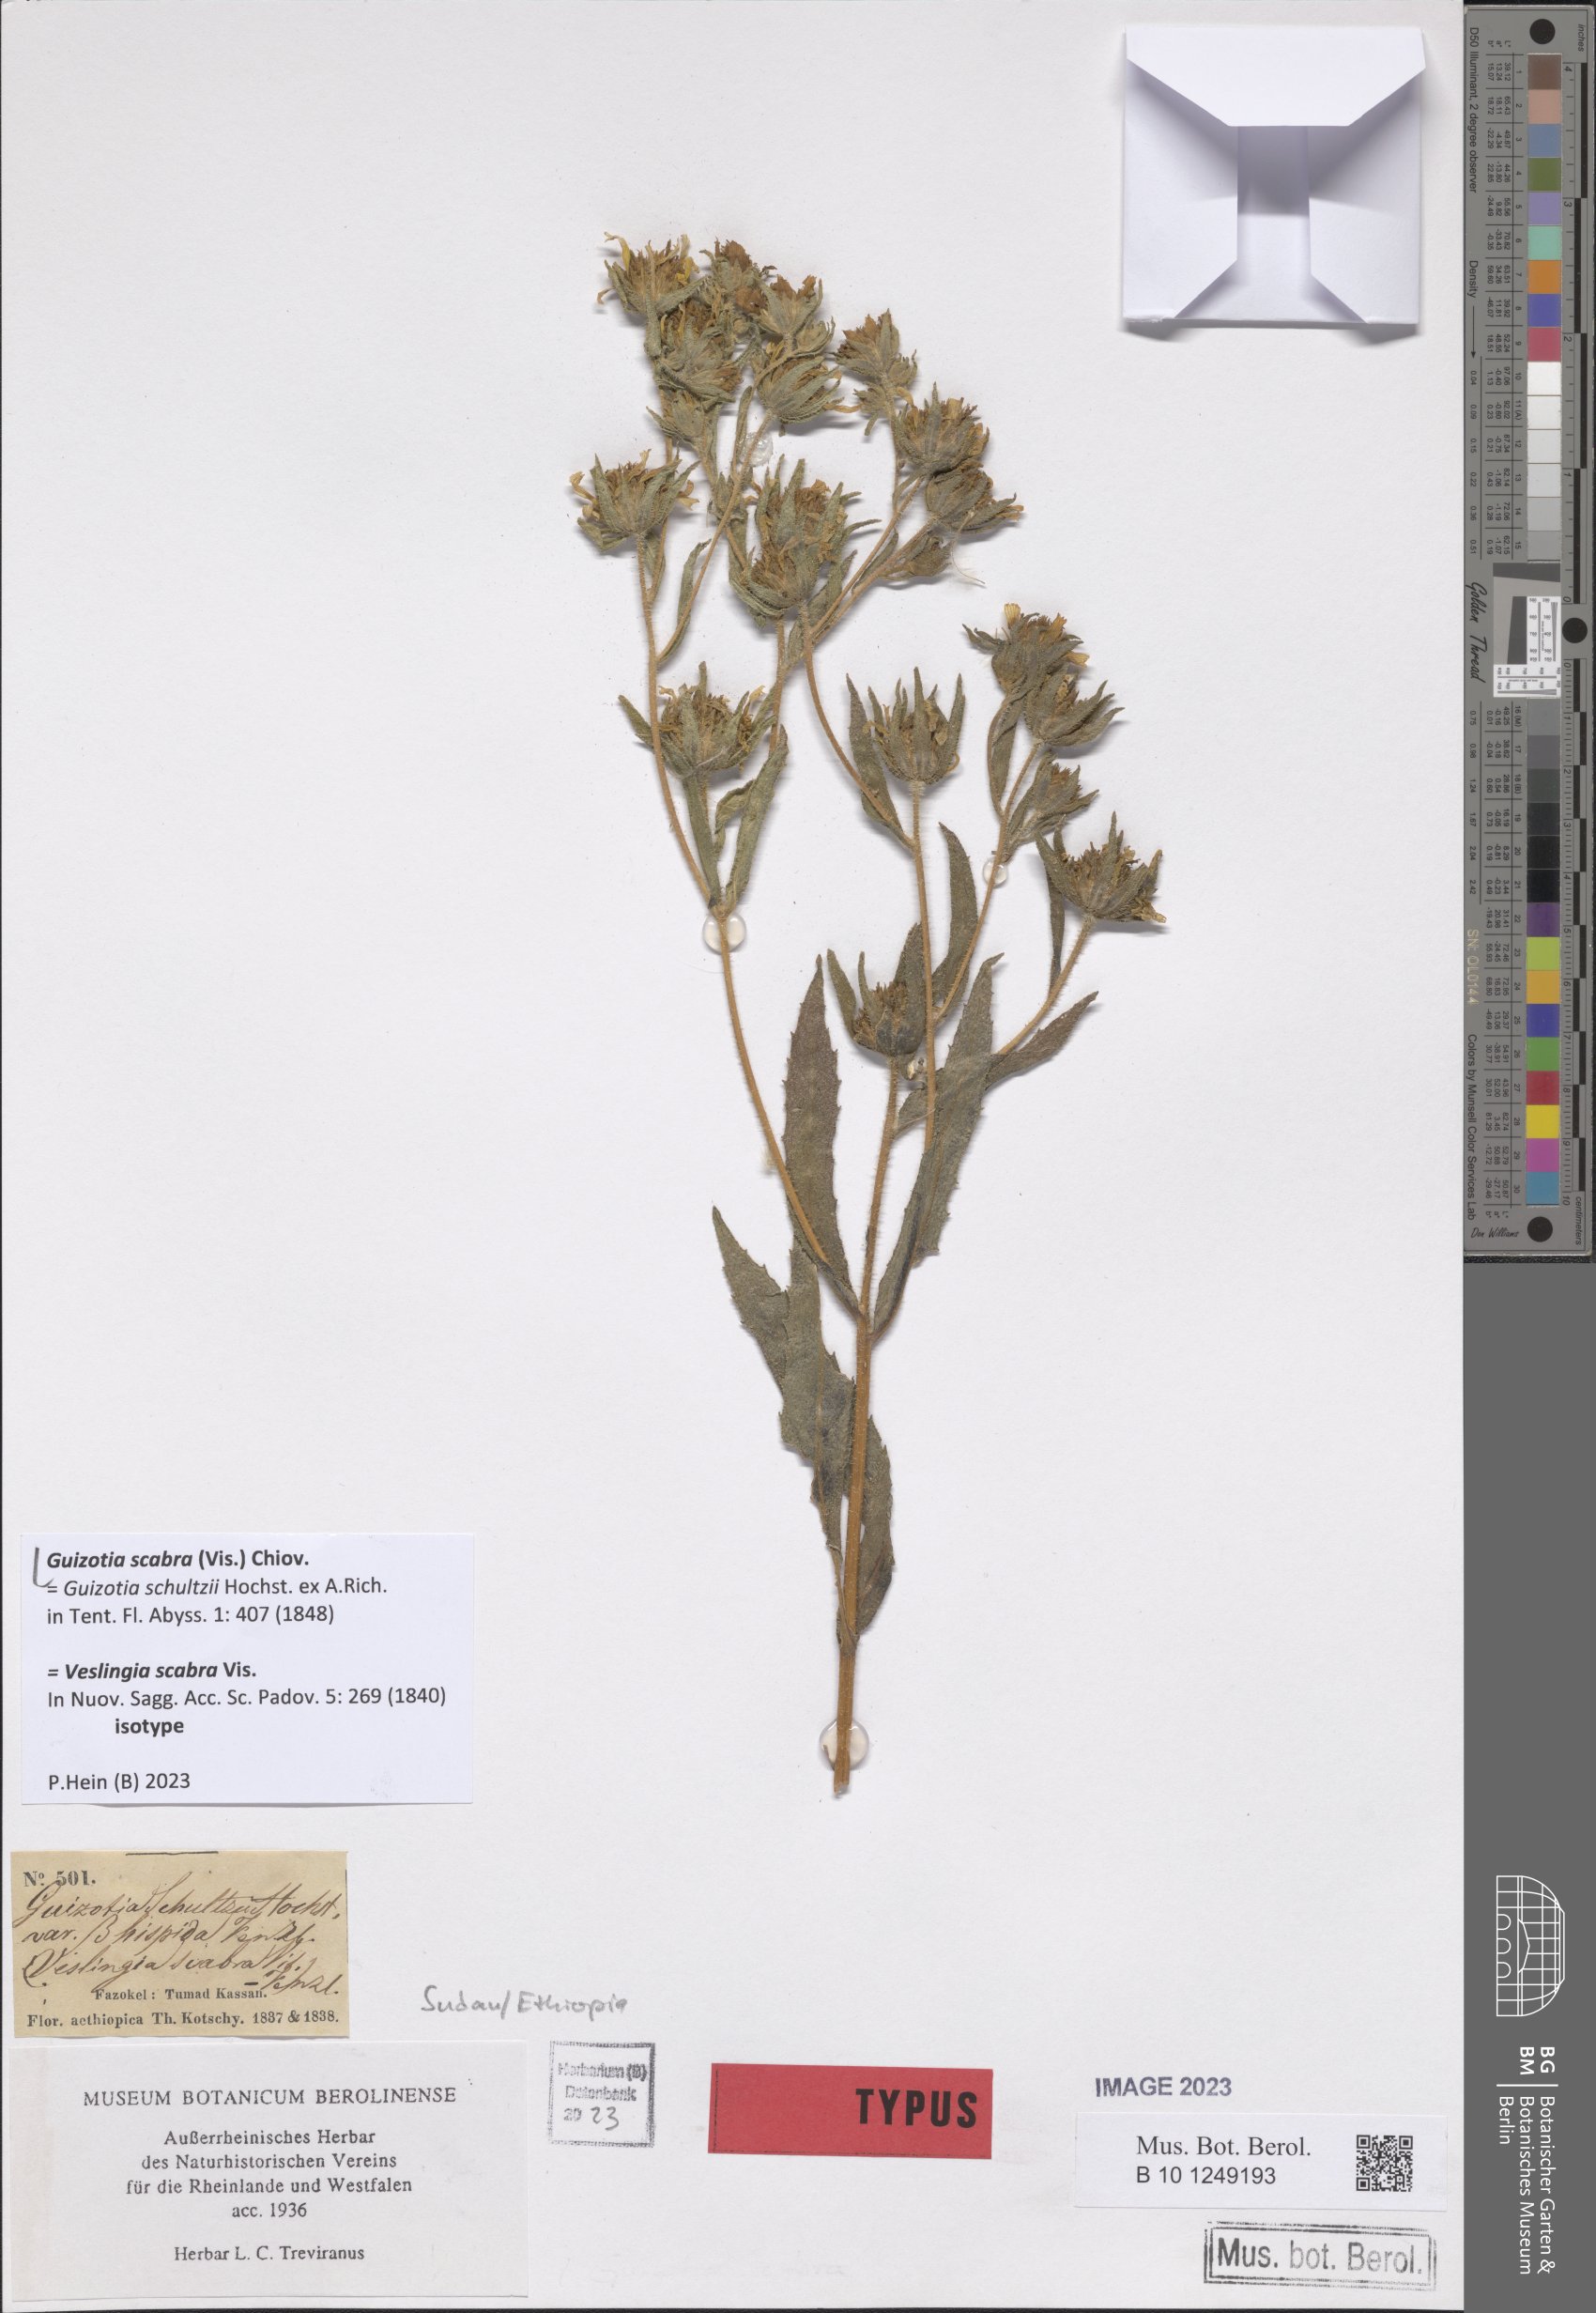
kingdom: Plantae
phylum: Tracheophyta
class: Magnoliopsida
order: Asterales
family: Asteraceae
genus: Guizotia
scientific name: Guizotia scabra
